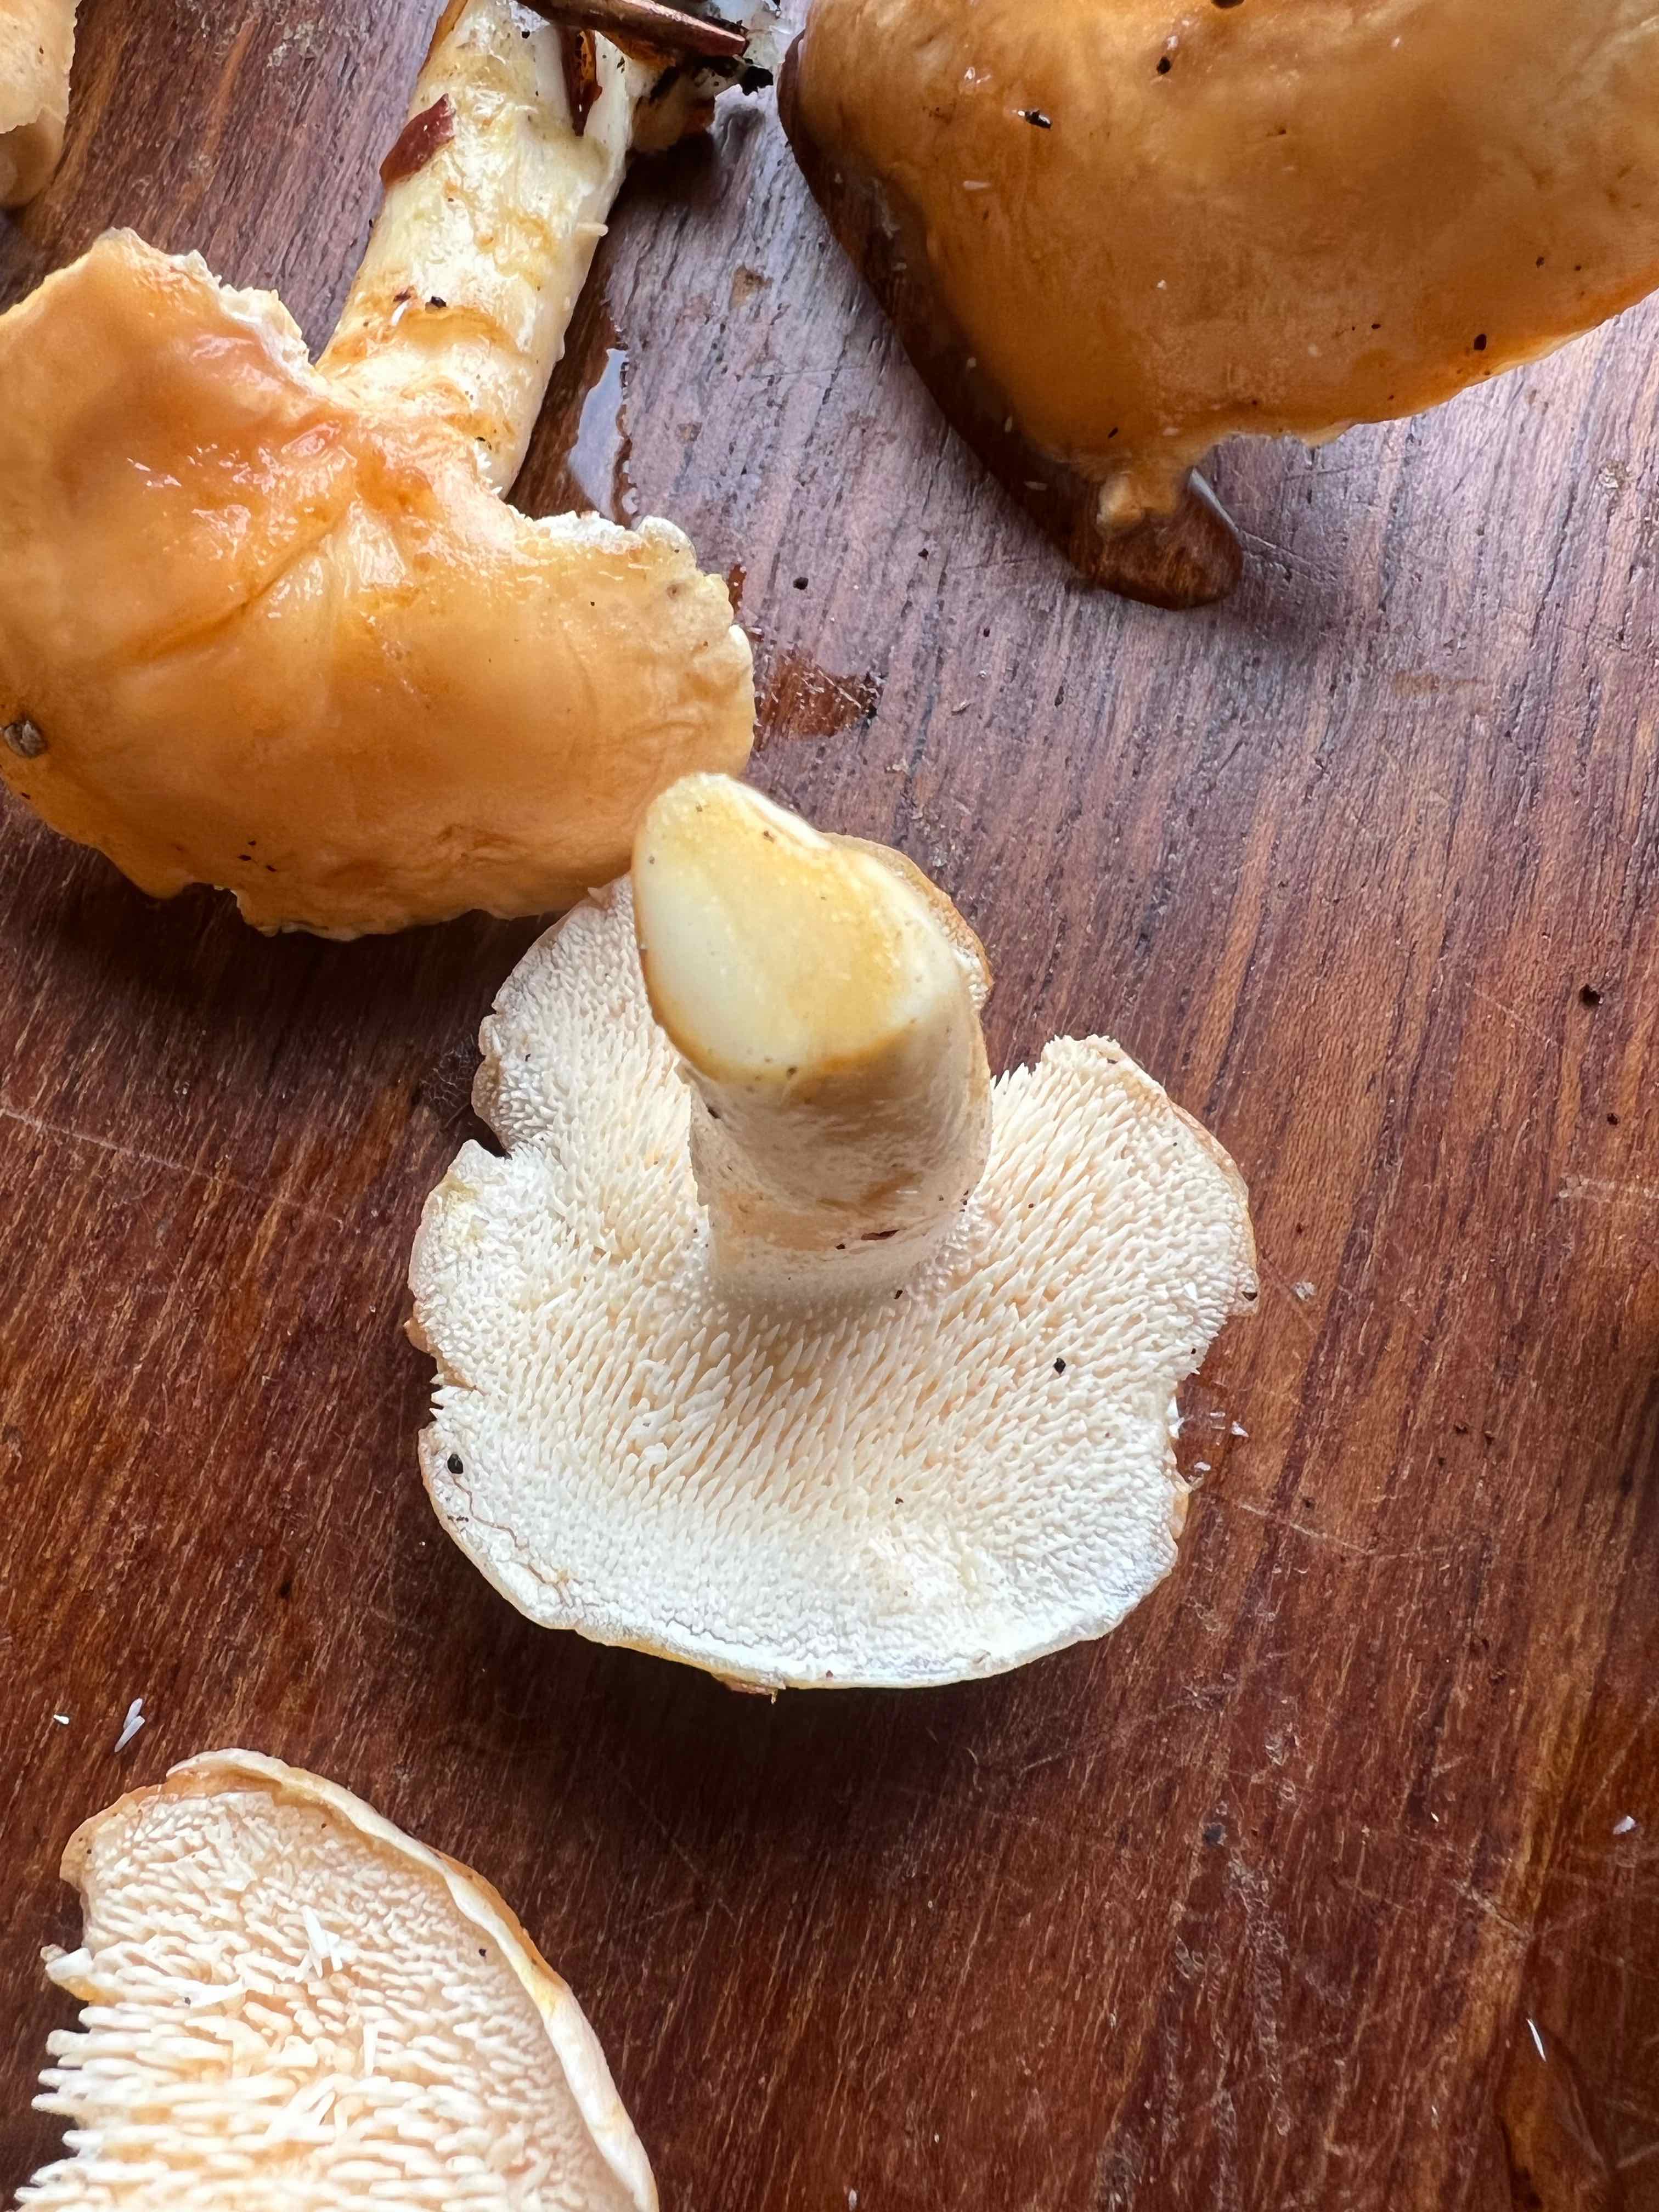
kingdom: Fungi
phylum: Basidiomycota
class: Agaricomycetes
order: Cantharellales
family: Hydnaceae
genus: Hydnum
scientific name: Hydnum
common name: pigsvamp
